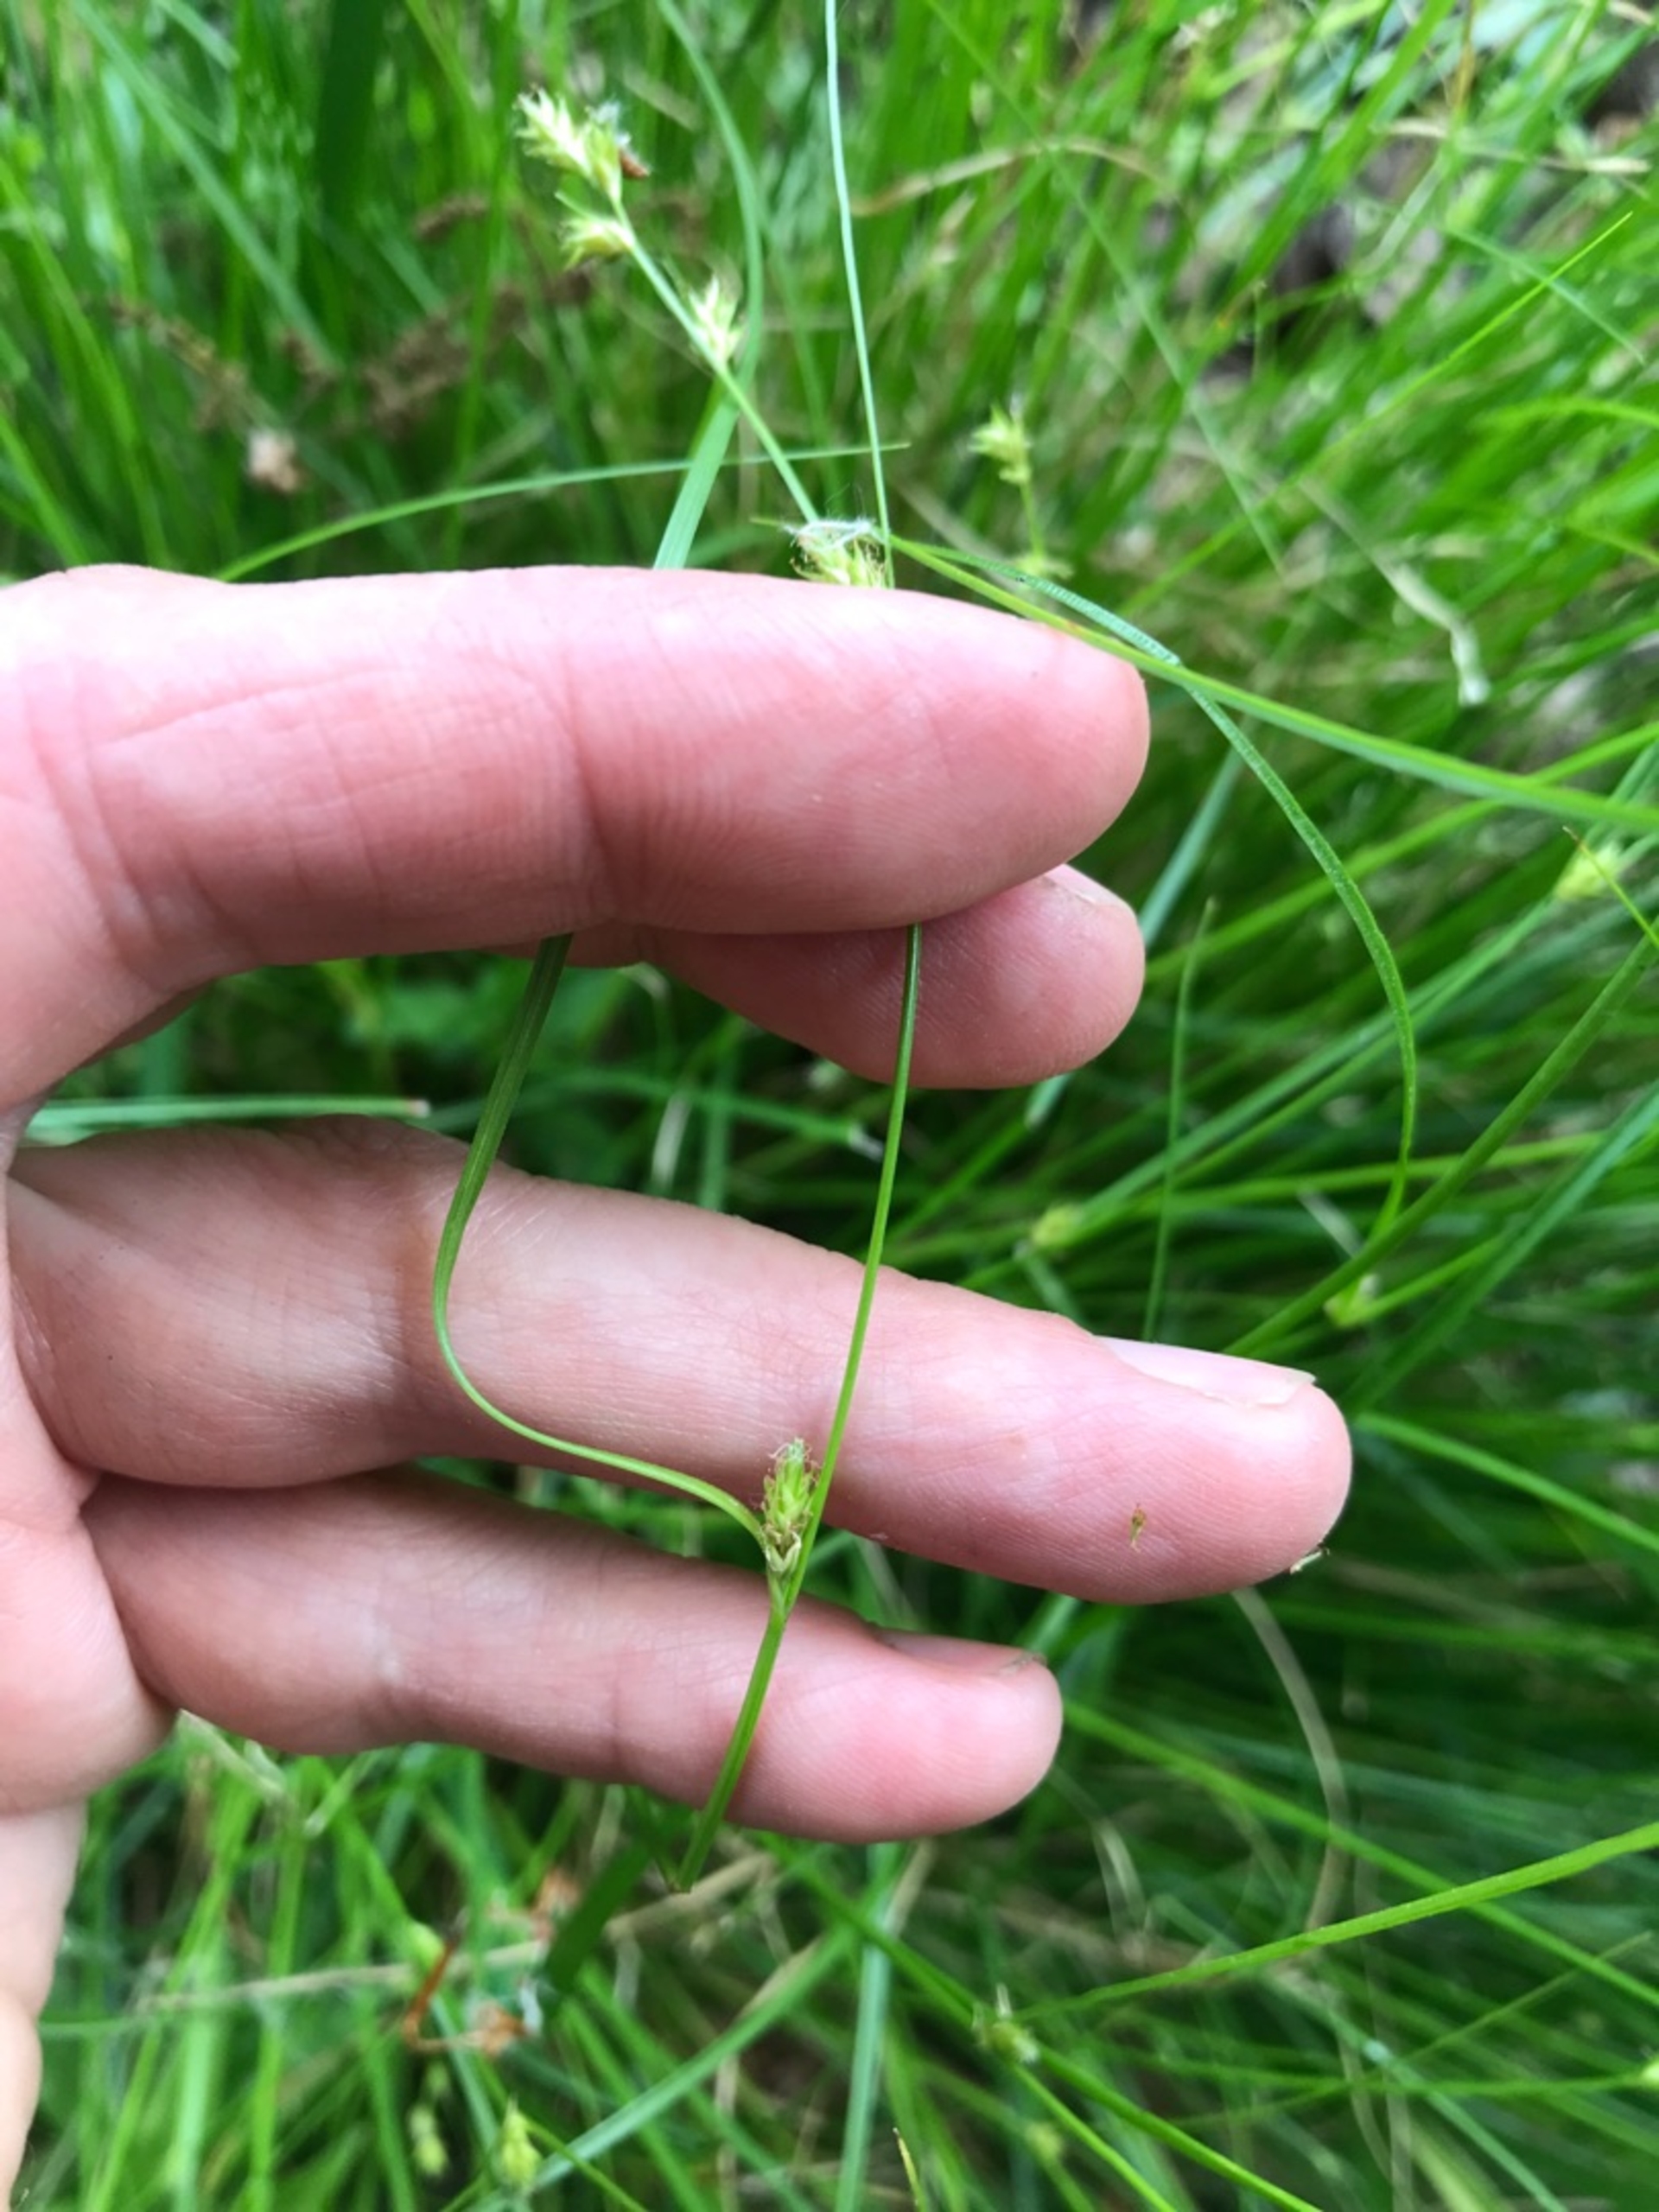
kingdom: Plantae
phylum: Tracheophyta
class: Liliopsida
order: Poales
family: Cyperaceae
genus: Carex
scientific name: Carex remota
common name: Akselblomstret star
